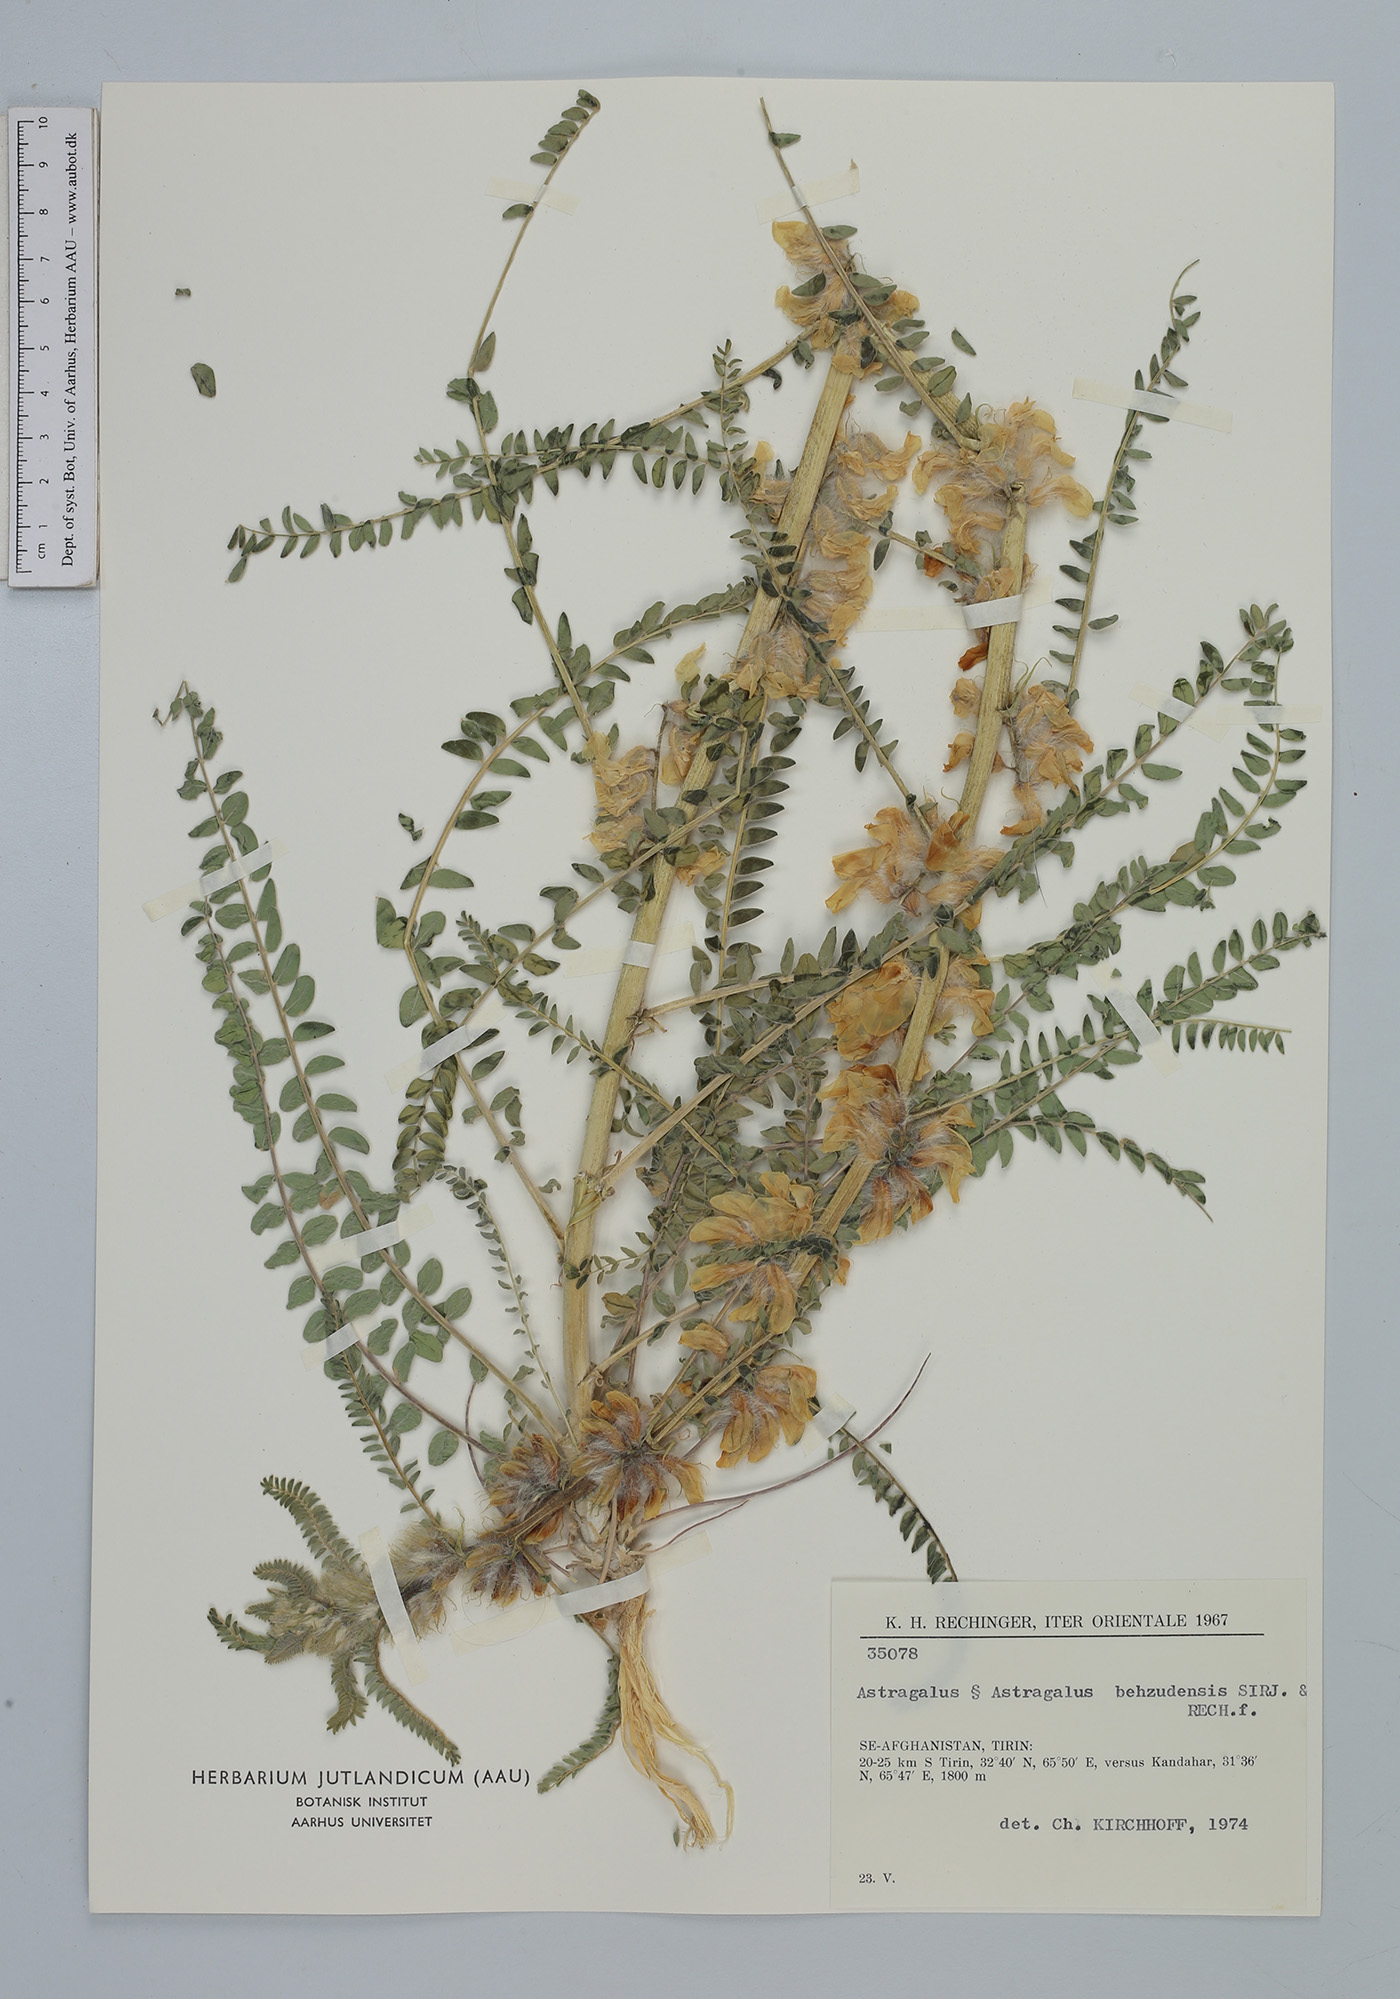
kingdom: Plantae
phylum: Tracheophyta
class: Magnoliopsida
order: Fabales
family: Fabaceae
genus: Astragalus
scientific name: Astragalus bezudensis
